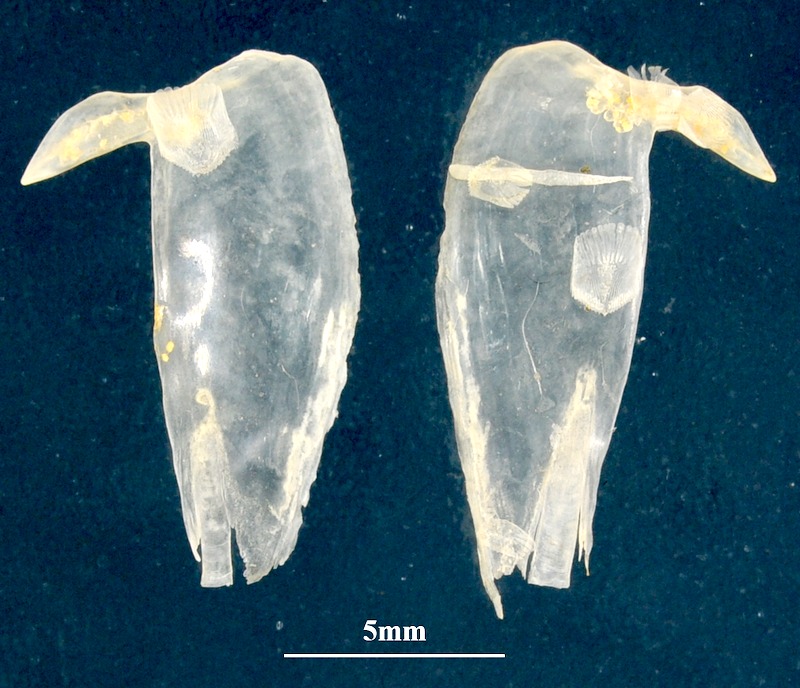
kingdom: Animalia
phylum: Chordata
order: Perciformes
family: Serranidae
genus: Serranus
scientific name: Serranus scriba
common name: Painted comber
